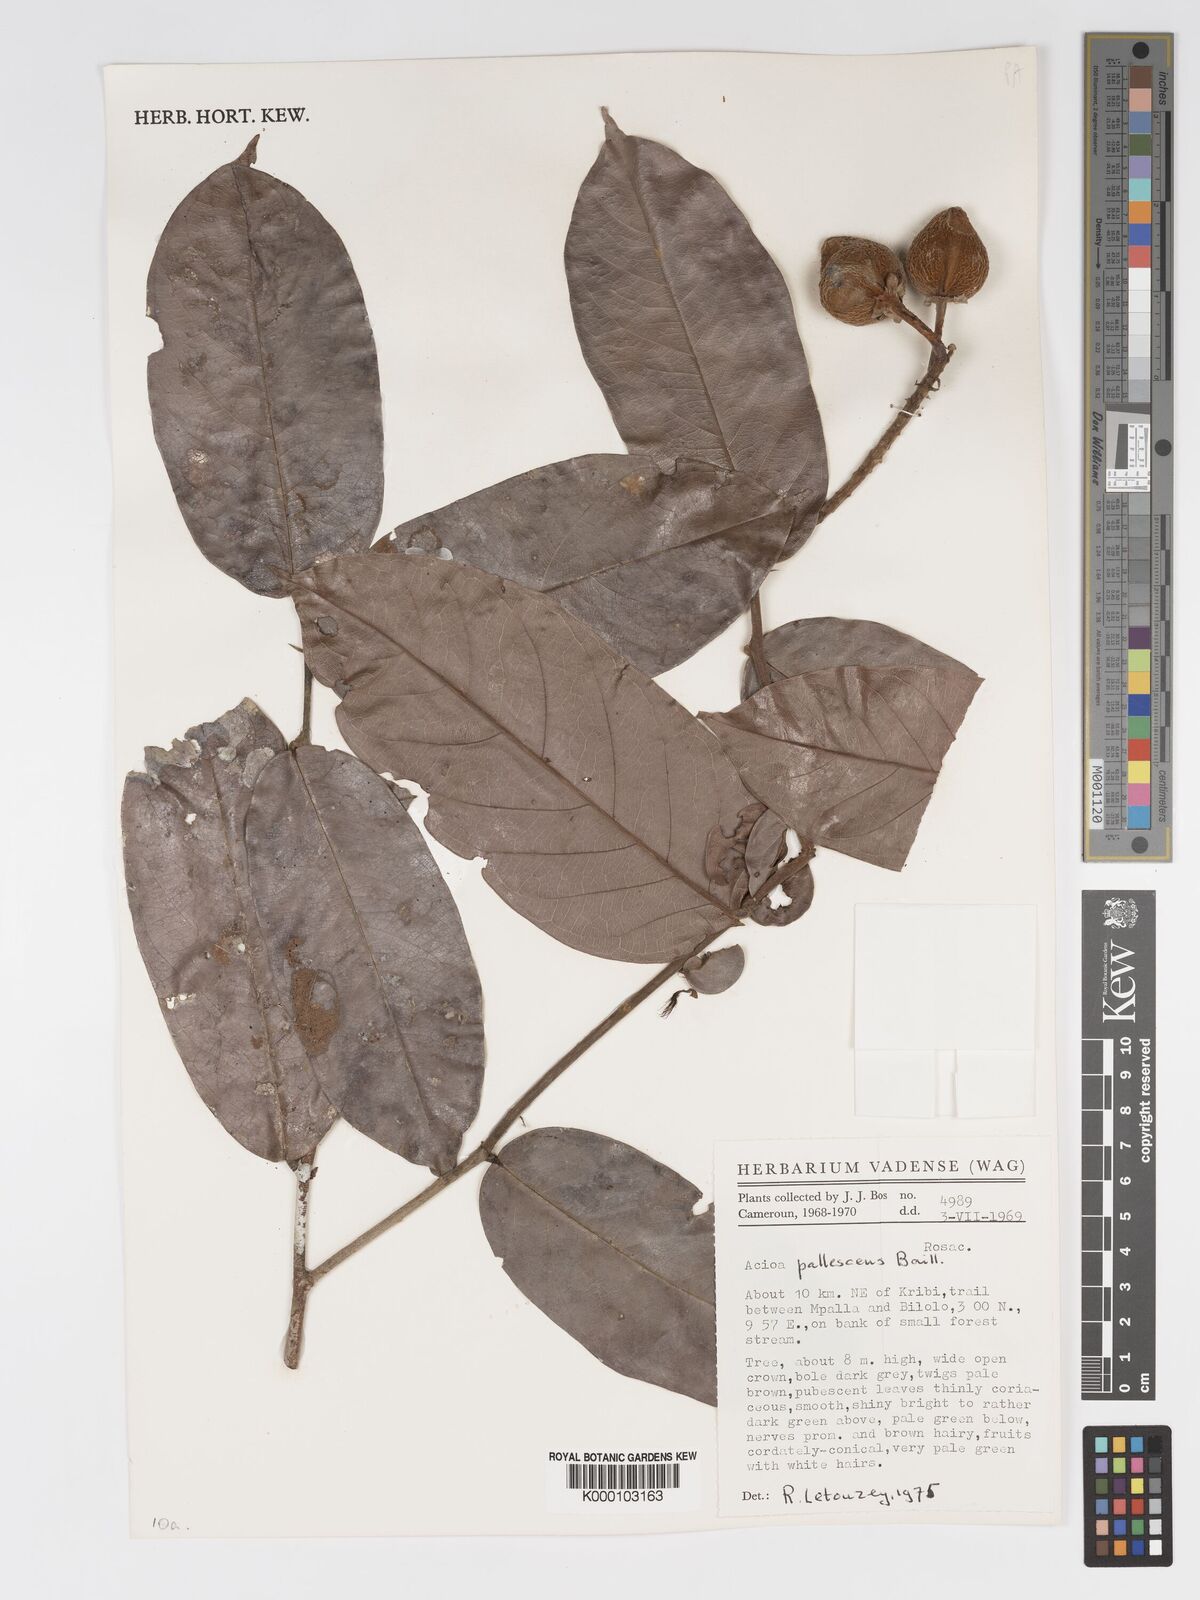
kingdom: Plantae
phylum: Tracheophyta
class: Magnoliopsida
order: Malpighiales
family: Chrysobalanaceae
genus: Dactyladenia
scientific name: Dactyladenia pallescens
